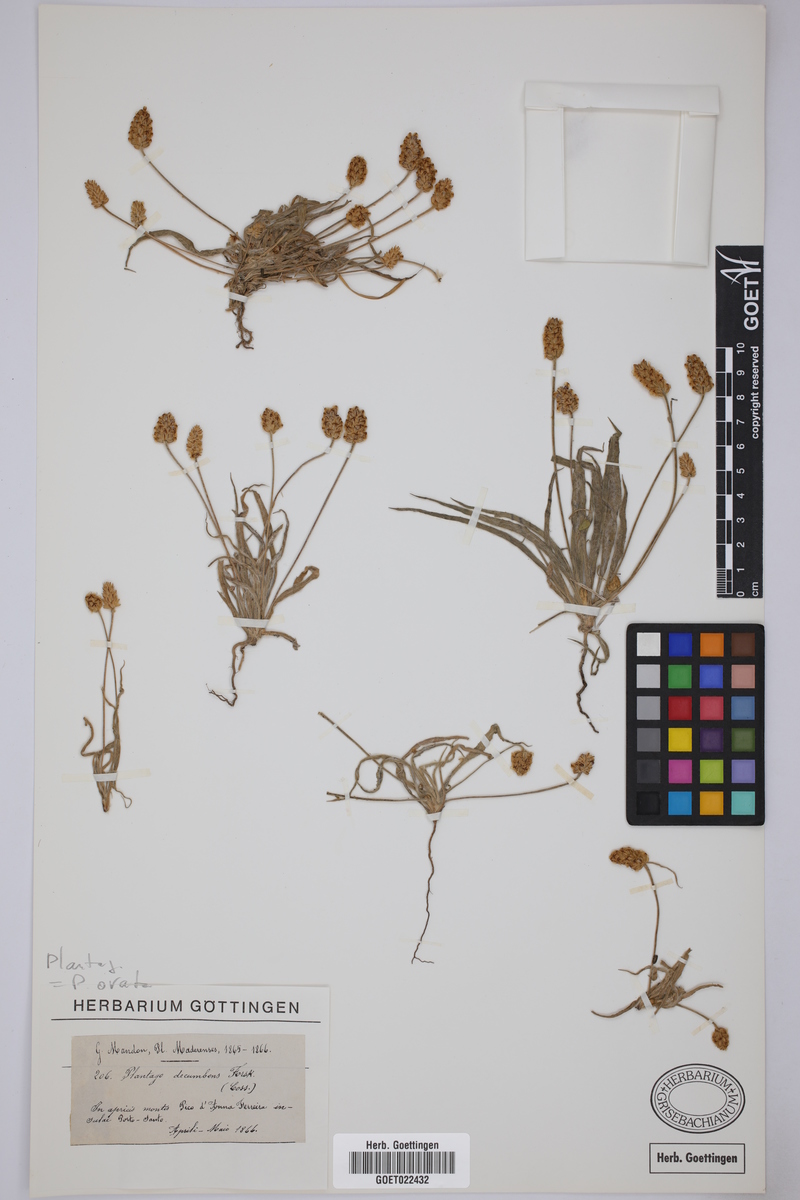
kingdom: Plantae
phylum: Tracheophyta
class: Magnoliopsida
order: Lamiales
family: Plantaginaceae
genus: Plantago
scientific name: Plantago ovata
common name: Blond plantain
